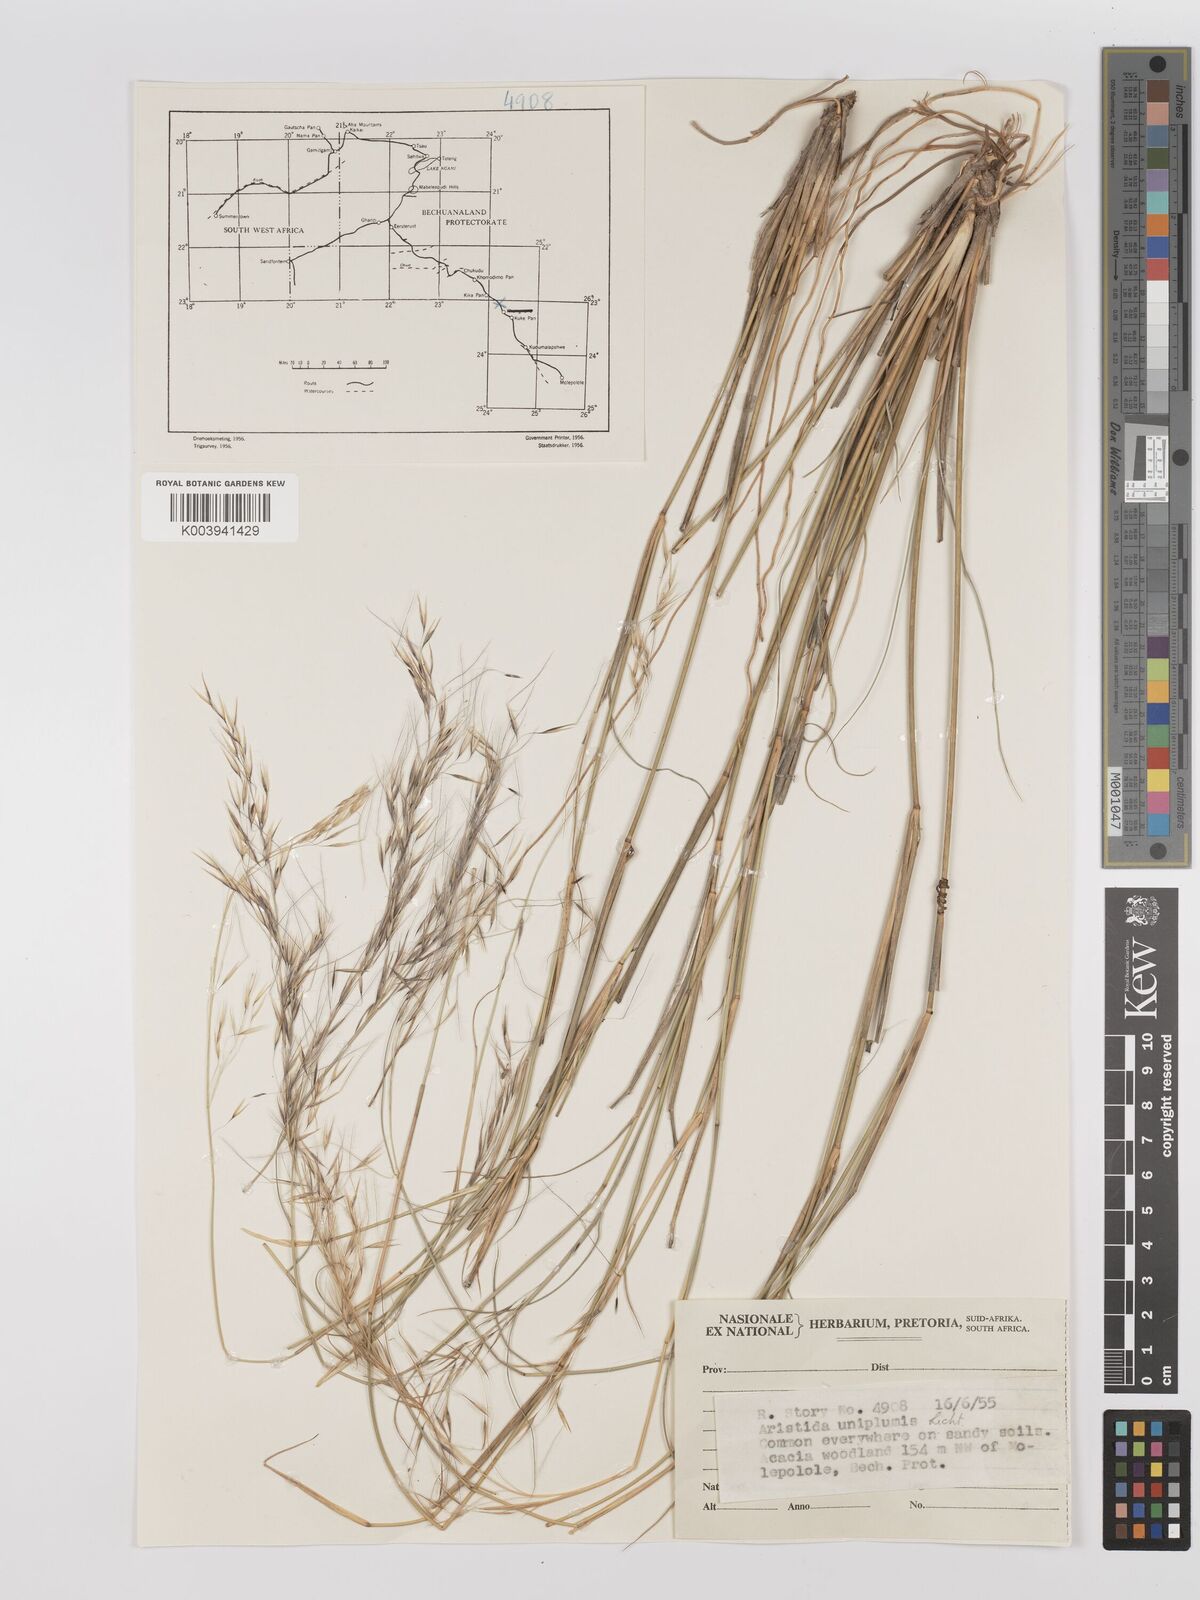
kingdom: Plantae
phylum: Tracheophyta
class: Liliopsida
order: Poales
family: Poaceae
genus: Stipagrostis
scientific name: Stipagrostis uniplumis
